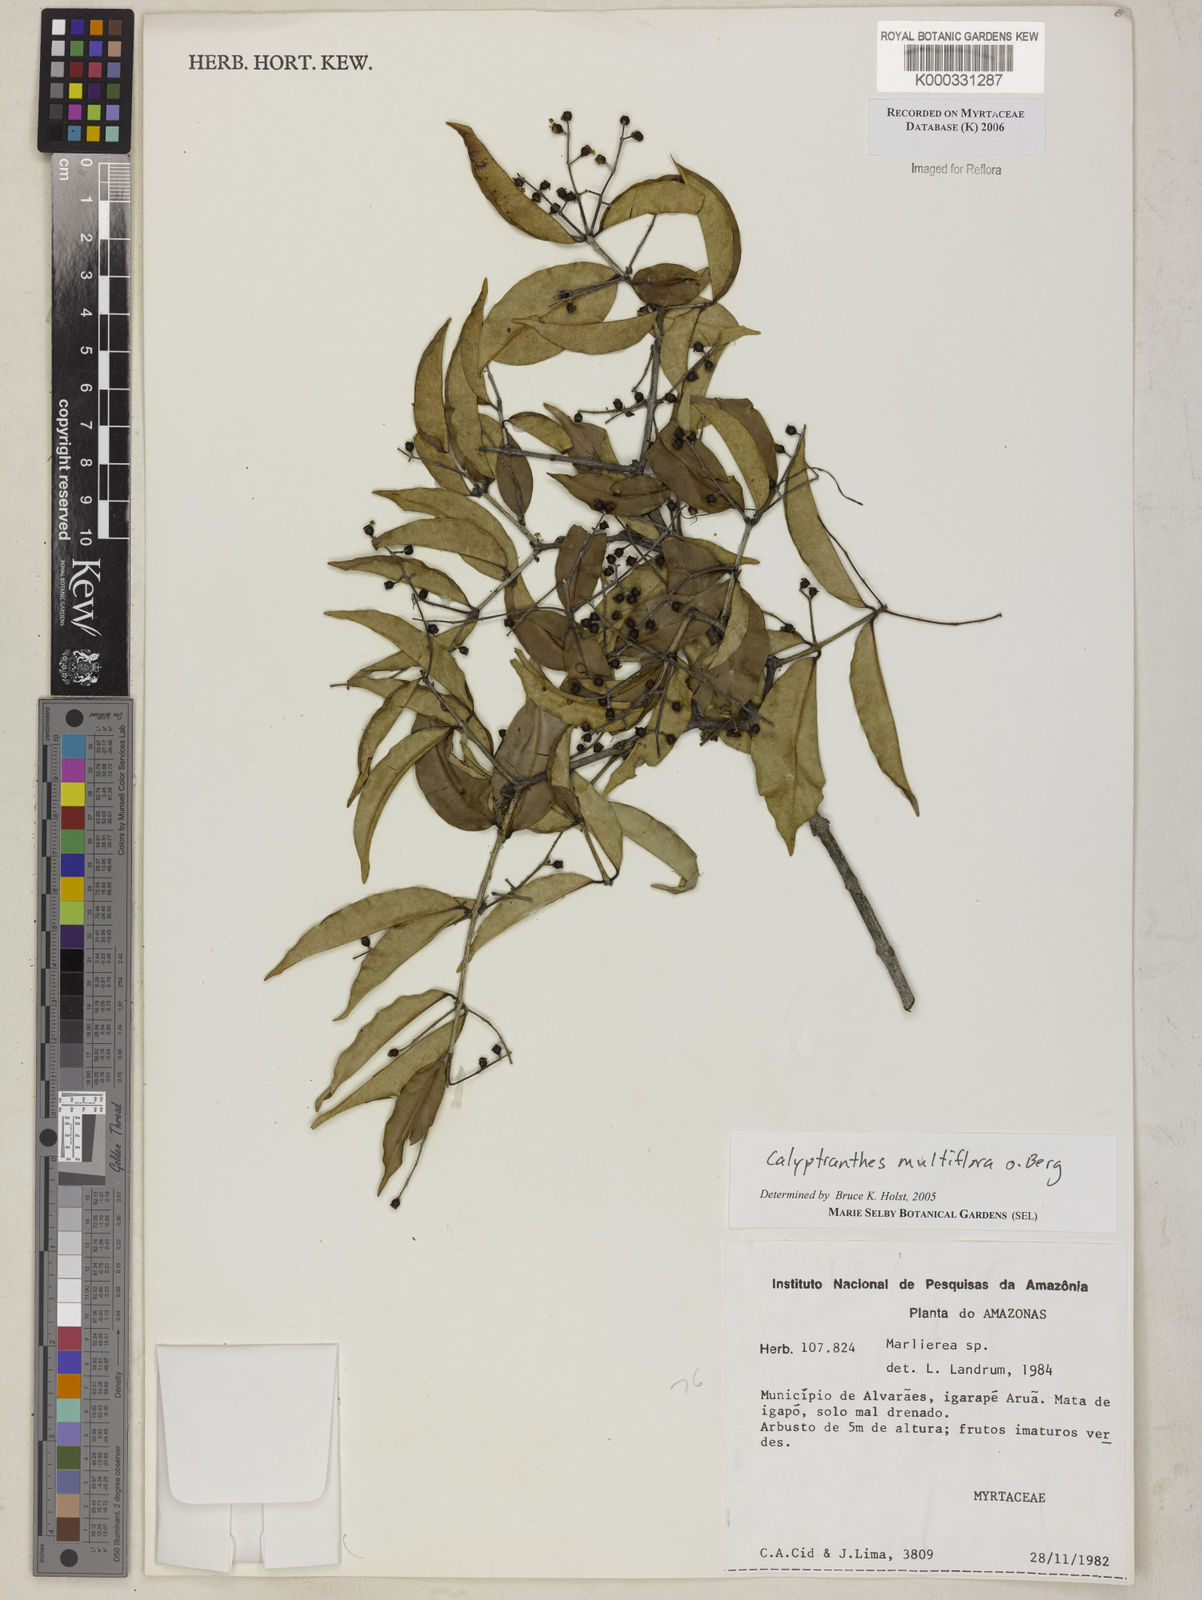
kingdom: Plantae
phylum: Tracheophyta
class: Magnoliopsida
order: Myrtales
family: Myrtaceae
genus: Myrcia
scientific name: Myrcia aulomyrcioides
